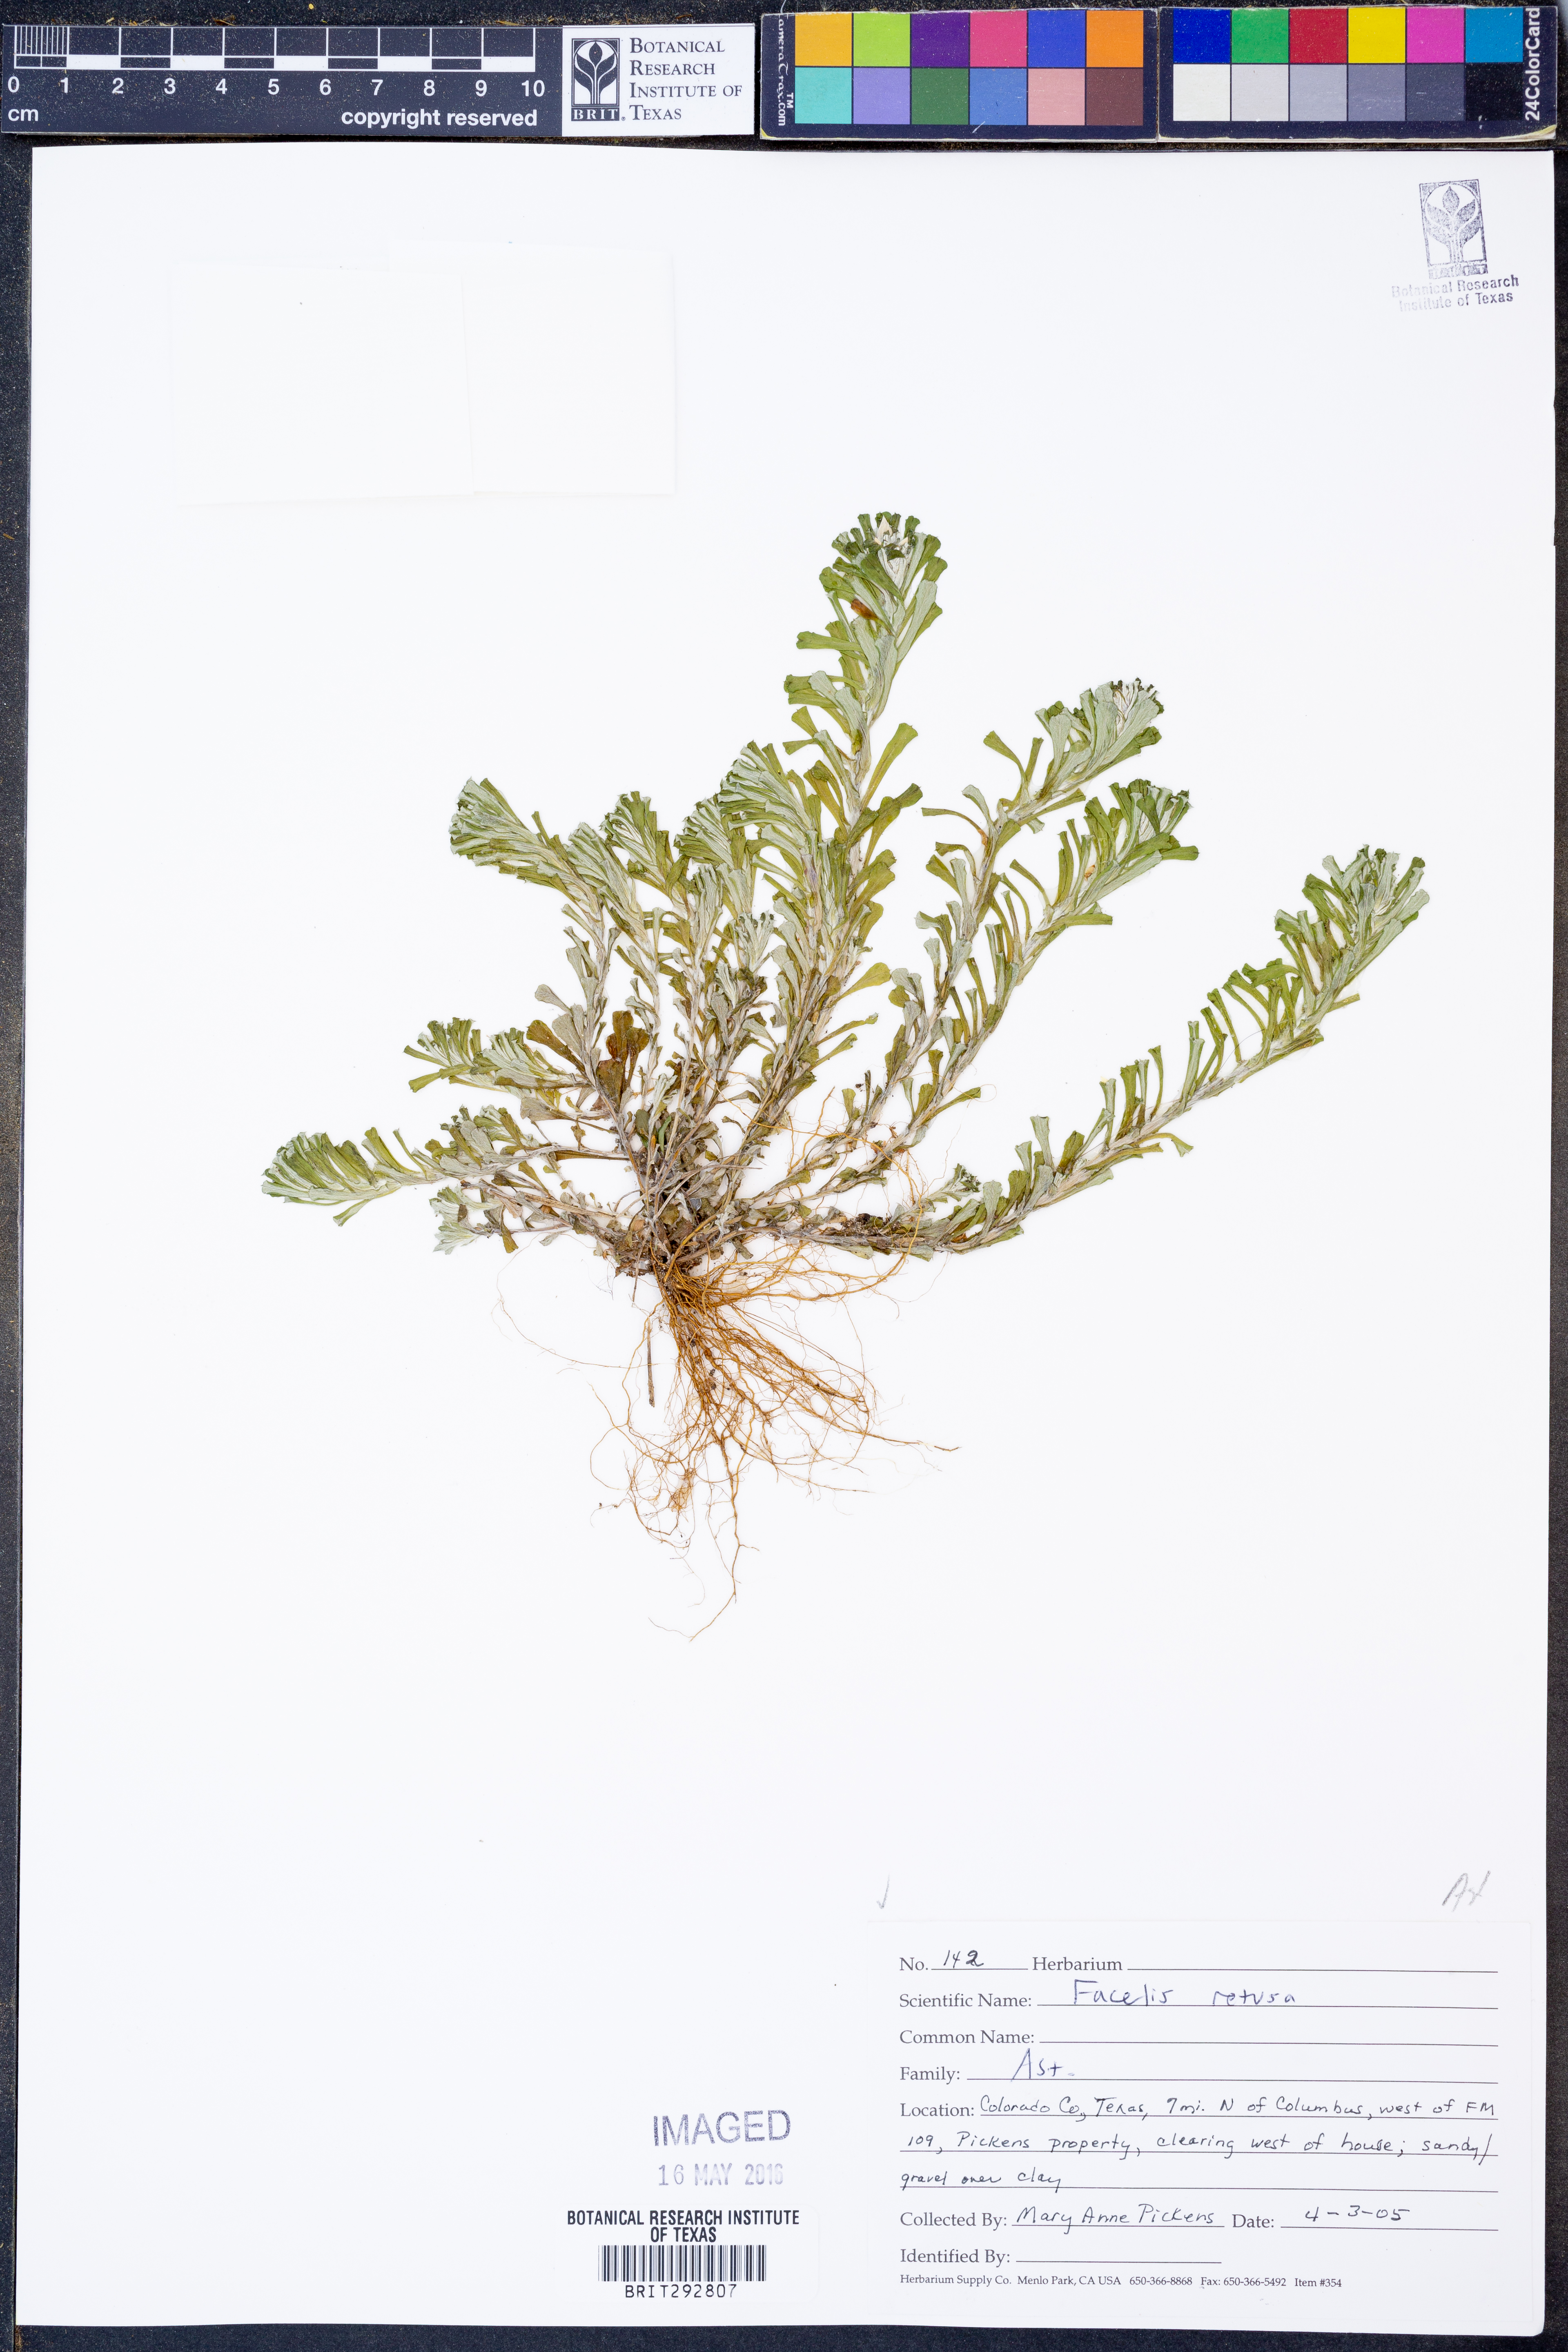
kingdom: Plantae
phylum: Tracheophyta
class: Magnoliopsida
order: Asterales
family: Asteraceae
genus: Facelis
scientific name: Facelis retusa
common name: Annual trampweed
